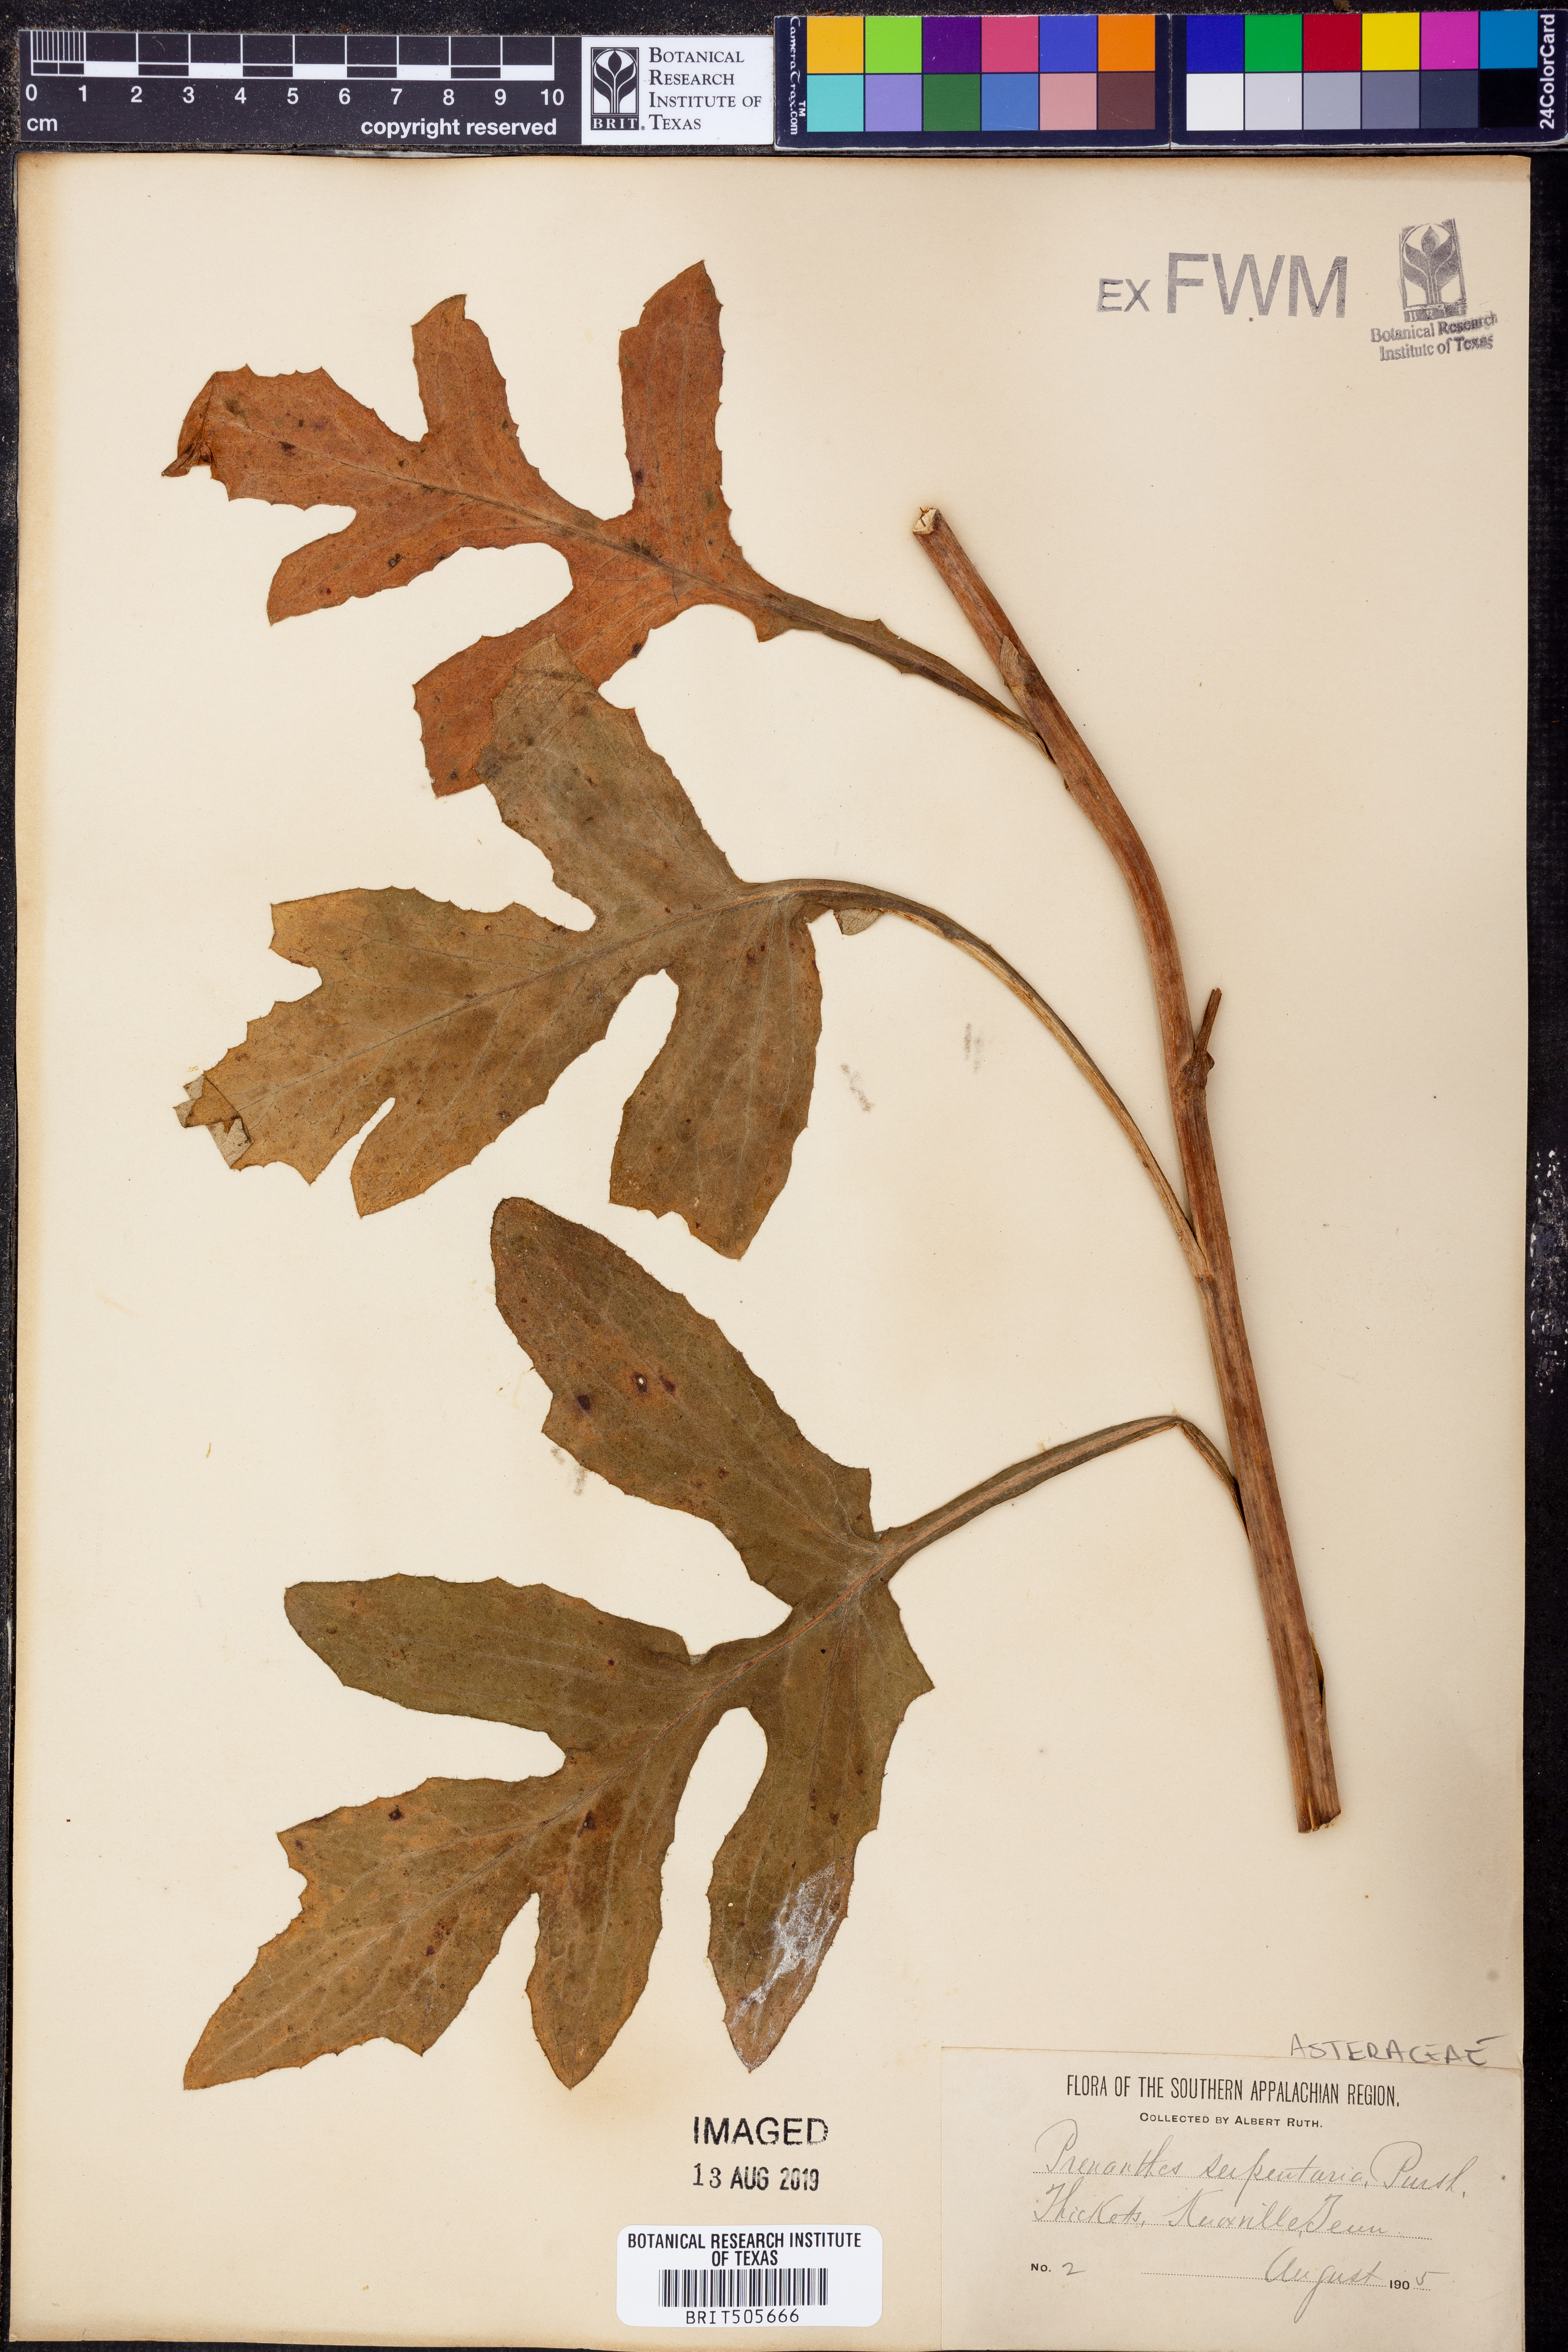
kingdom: Plantae
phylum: Tracheophyta
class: Magnoliopsida
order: Asterales
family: Asteraceae
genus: Nabalus
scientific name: Nabalus serpentarius
